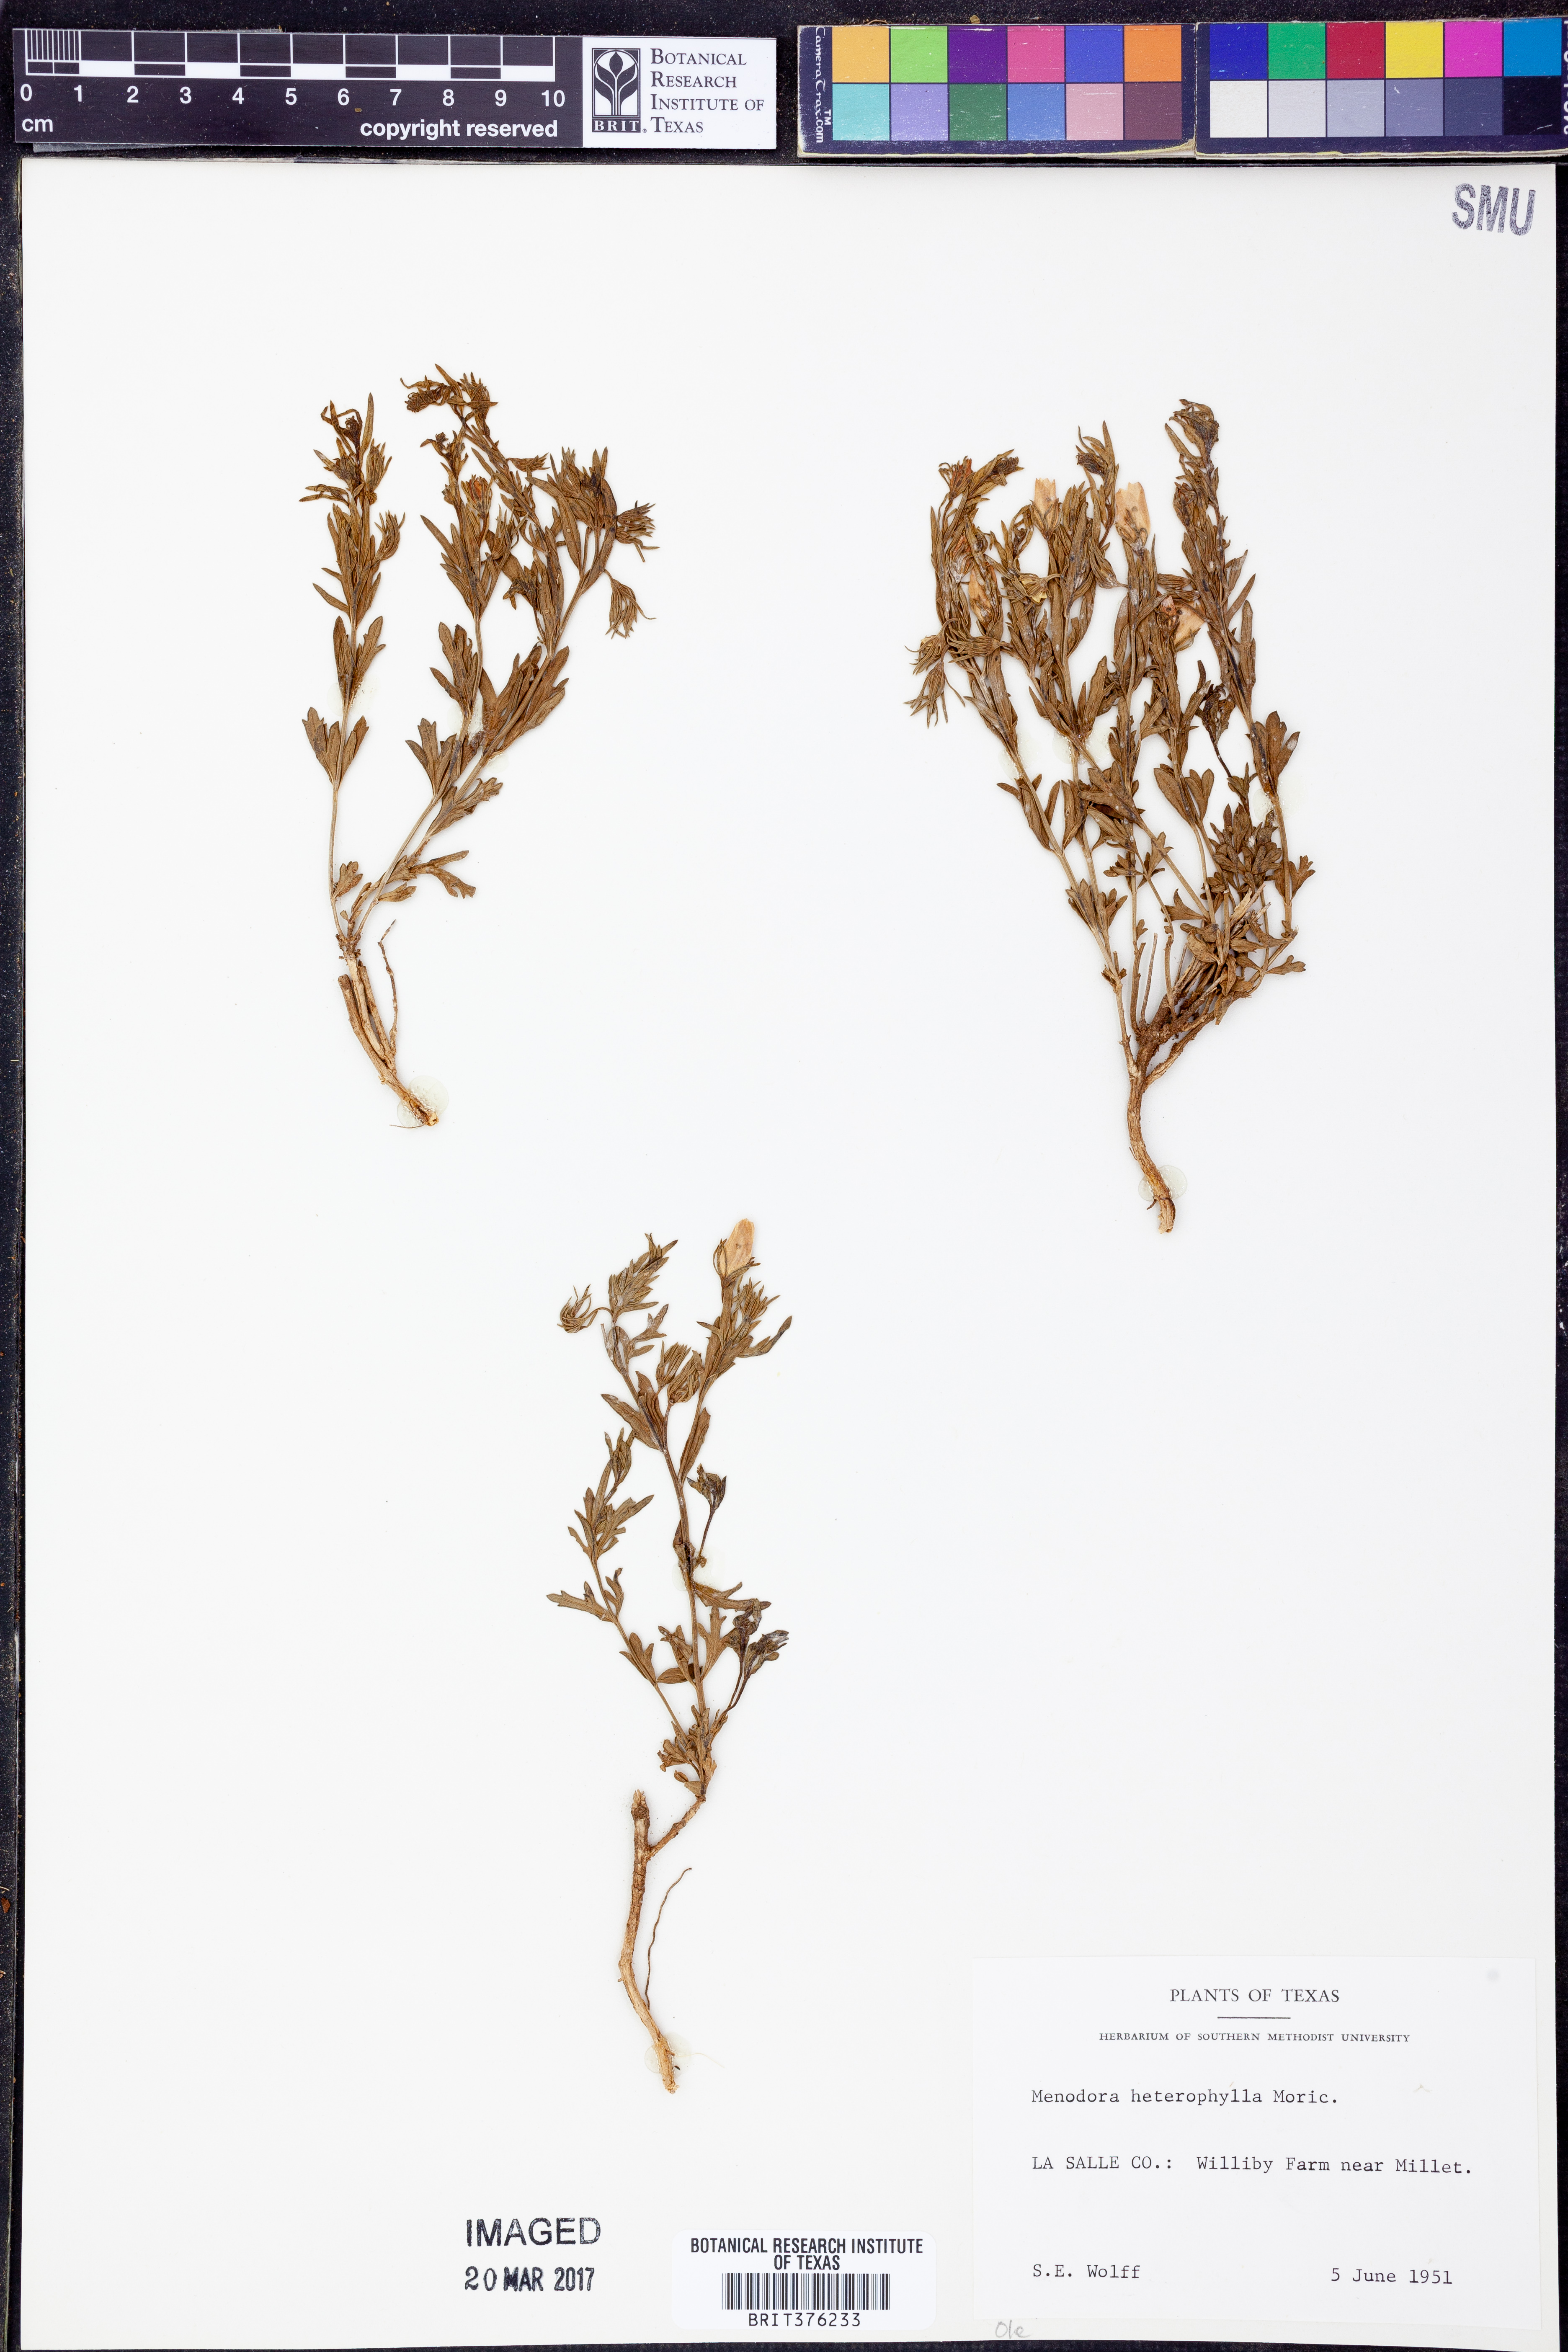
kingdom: Plantae
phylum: Tracheophyta
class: Magnoliopsida
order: Lamiales
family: Oleaceae
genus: Menodora
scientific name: Menodora heterophylla
